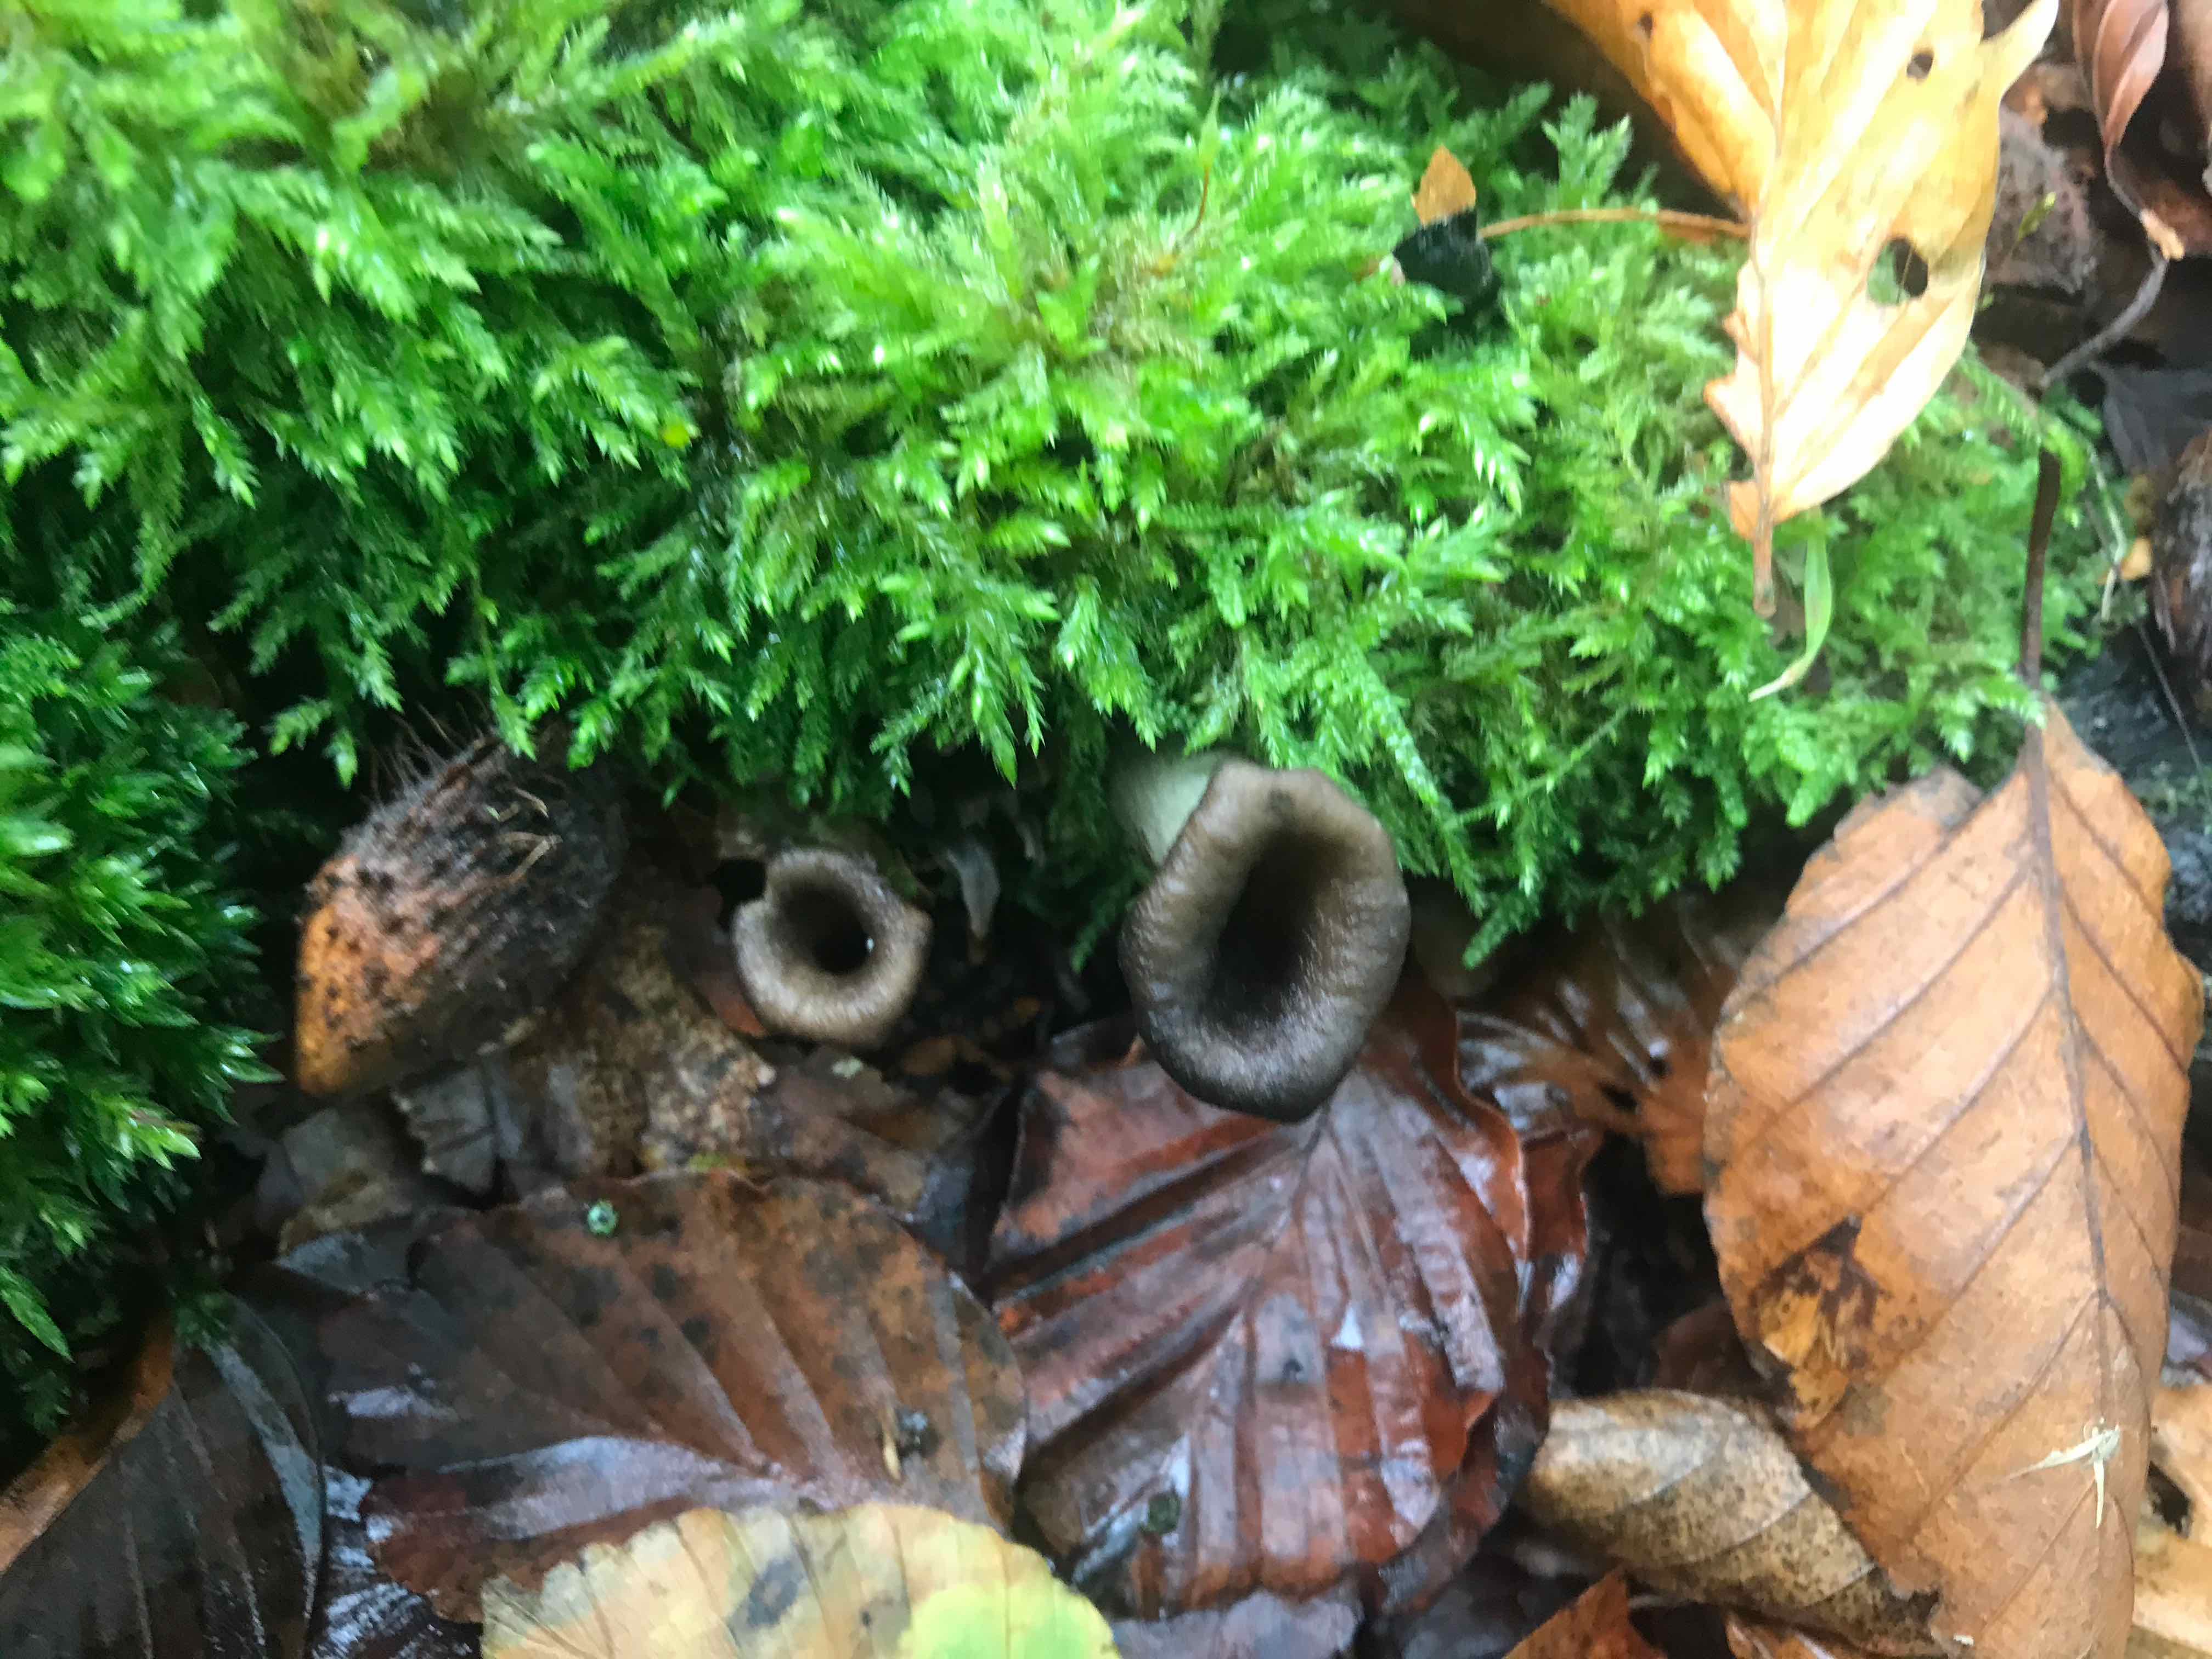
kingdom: Fungi
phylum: Basidiomycota
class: Agaricomycetes
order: Cantharellales
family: Hydnaceae
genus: Craterellus
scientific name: Craterellus cornucopioides
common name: trompetsvamp
